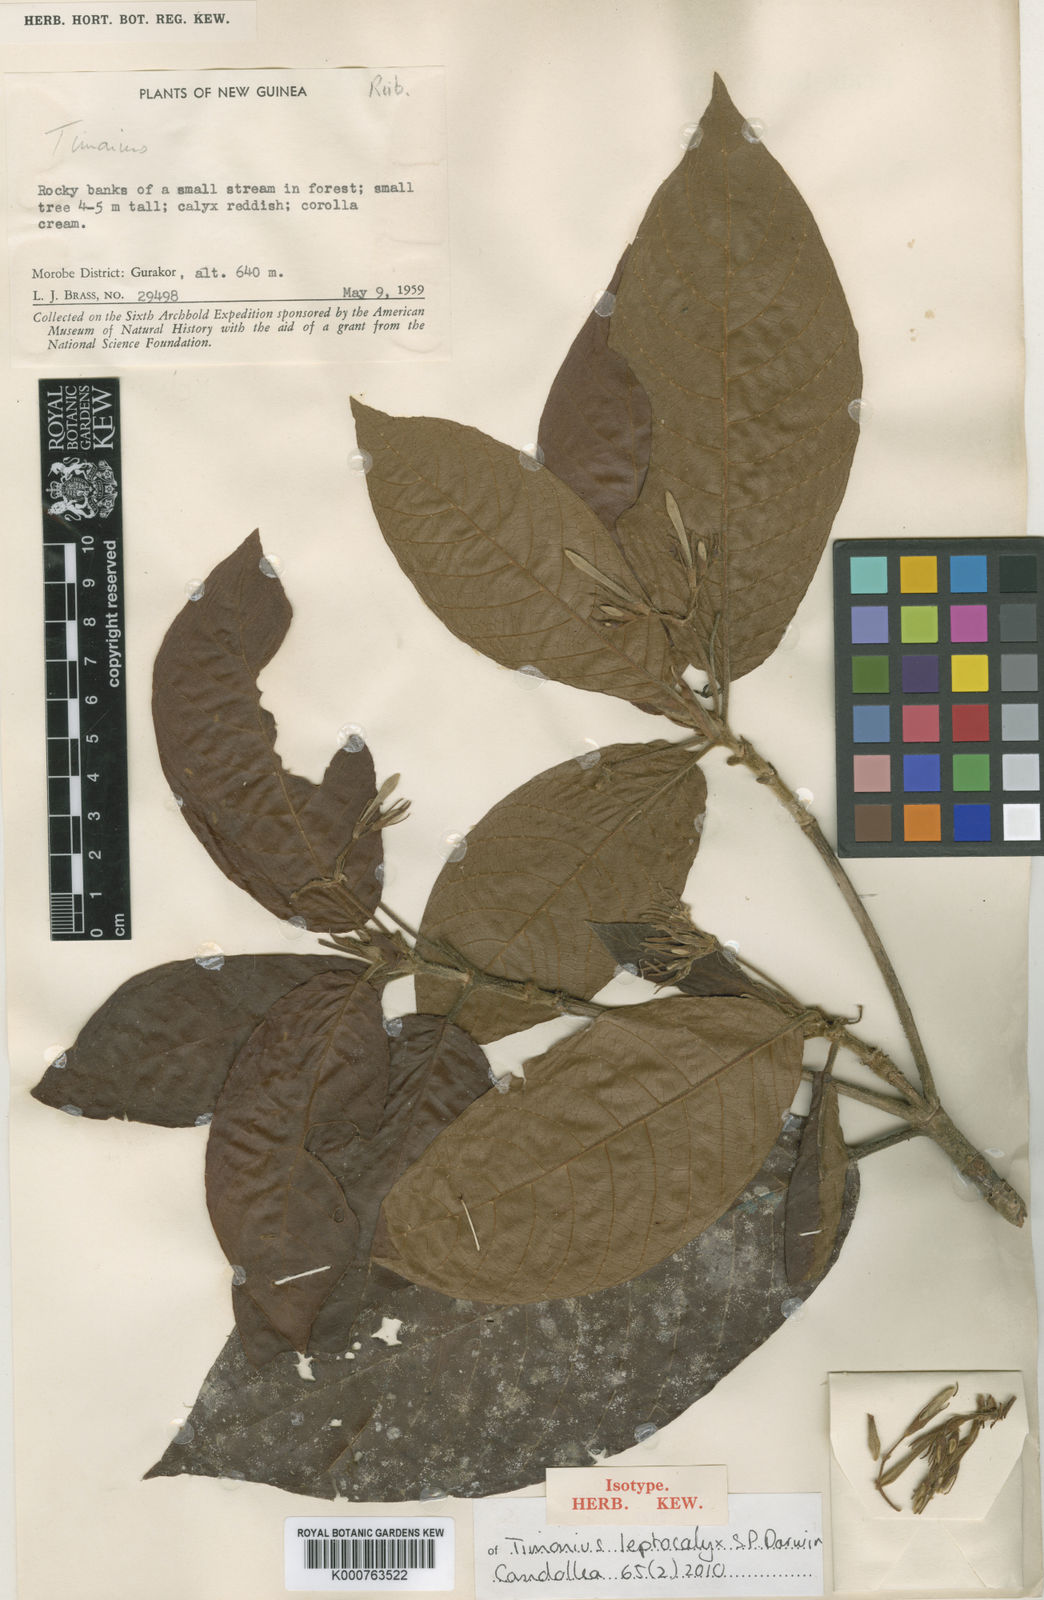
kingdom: Plantae
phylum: Tracheophyta
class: Magnoliopsida
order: Gentianales
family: Rubiaceae
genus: Timonius
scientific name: Timonius leptocalyx
